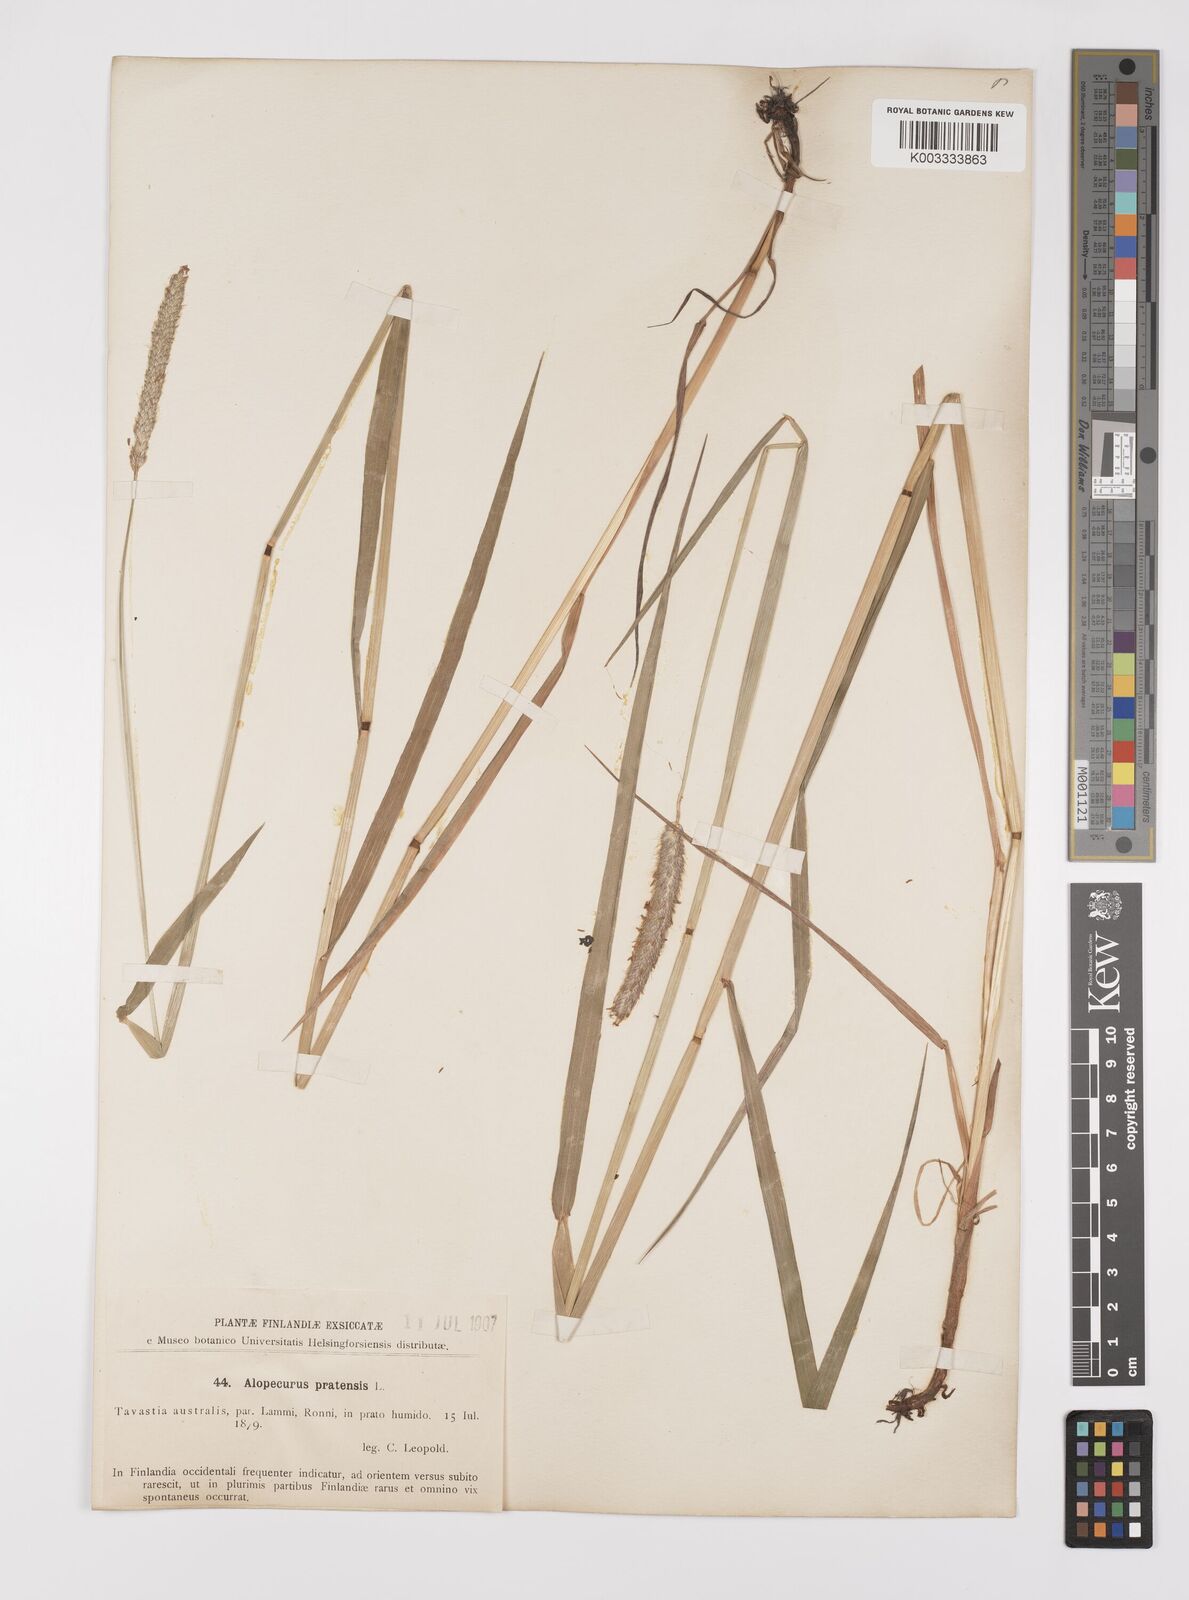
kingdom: Plantae
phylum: Tracheophyta
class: Liliopsida
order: Poales
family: Poaceae
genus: Alopecurus
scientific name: Alopecurus pratensis
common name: Meadow foxtail
